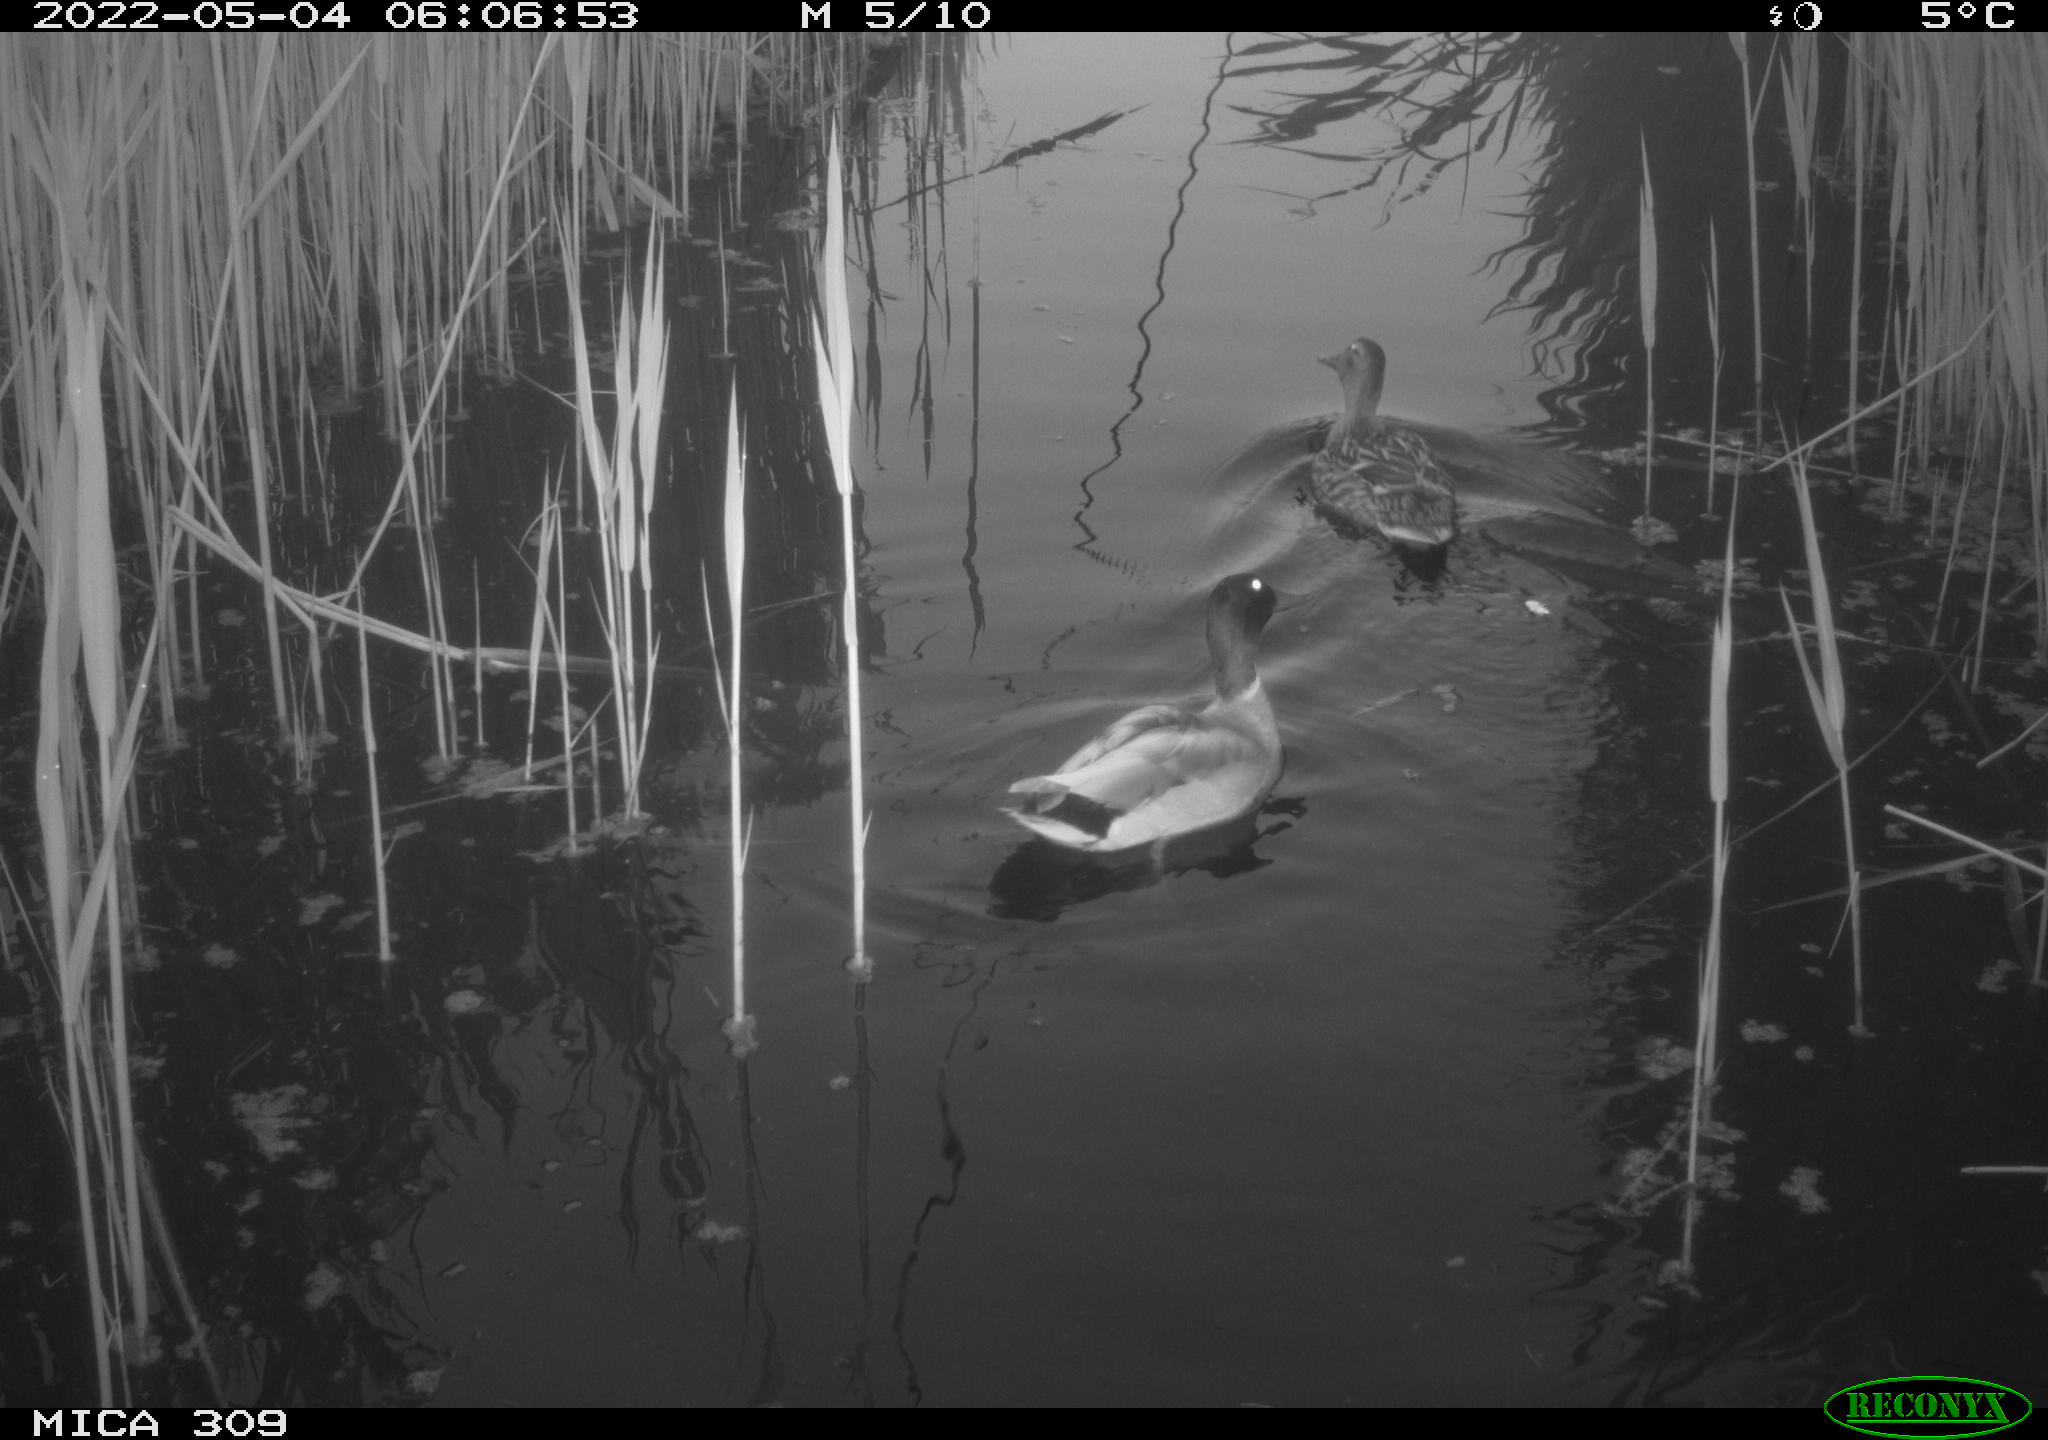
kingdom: Animalia
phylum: Chordata
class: Aves
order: Anseriformes
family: Anatidae
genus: Mareca
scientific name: Mareca strepera
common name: Gadwall
